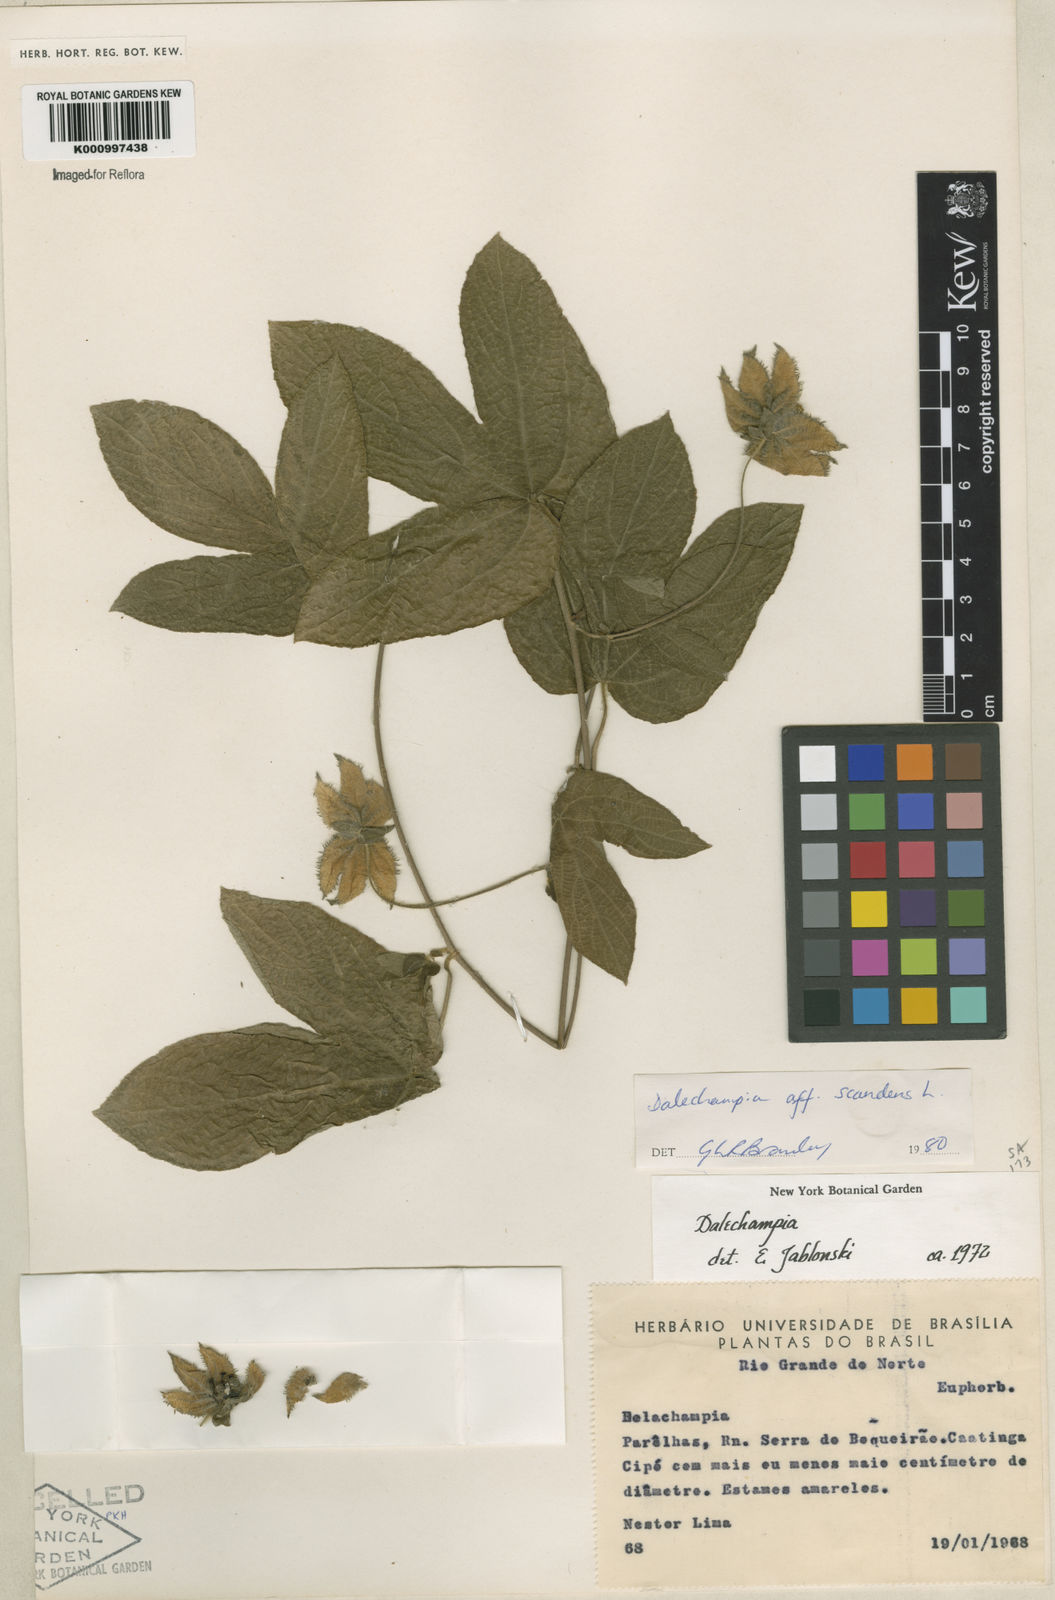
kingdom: Plantae
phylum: Tracheophyta
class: Magnoliopsida
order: Malpighiales
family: Euphorbiaceae
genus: Dalechampia
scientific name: Dalechampia scandens
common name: Spurgecreeper
